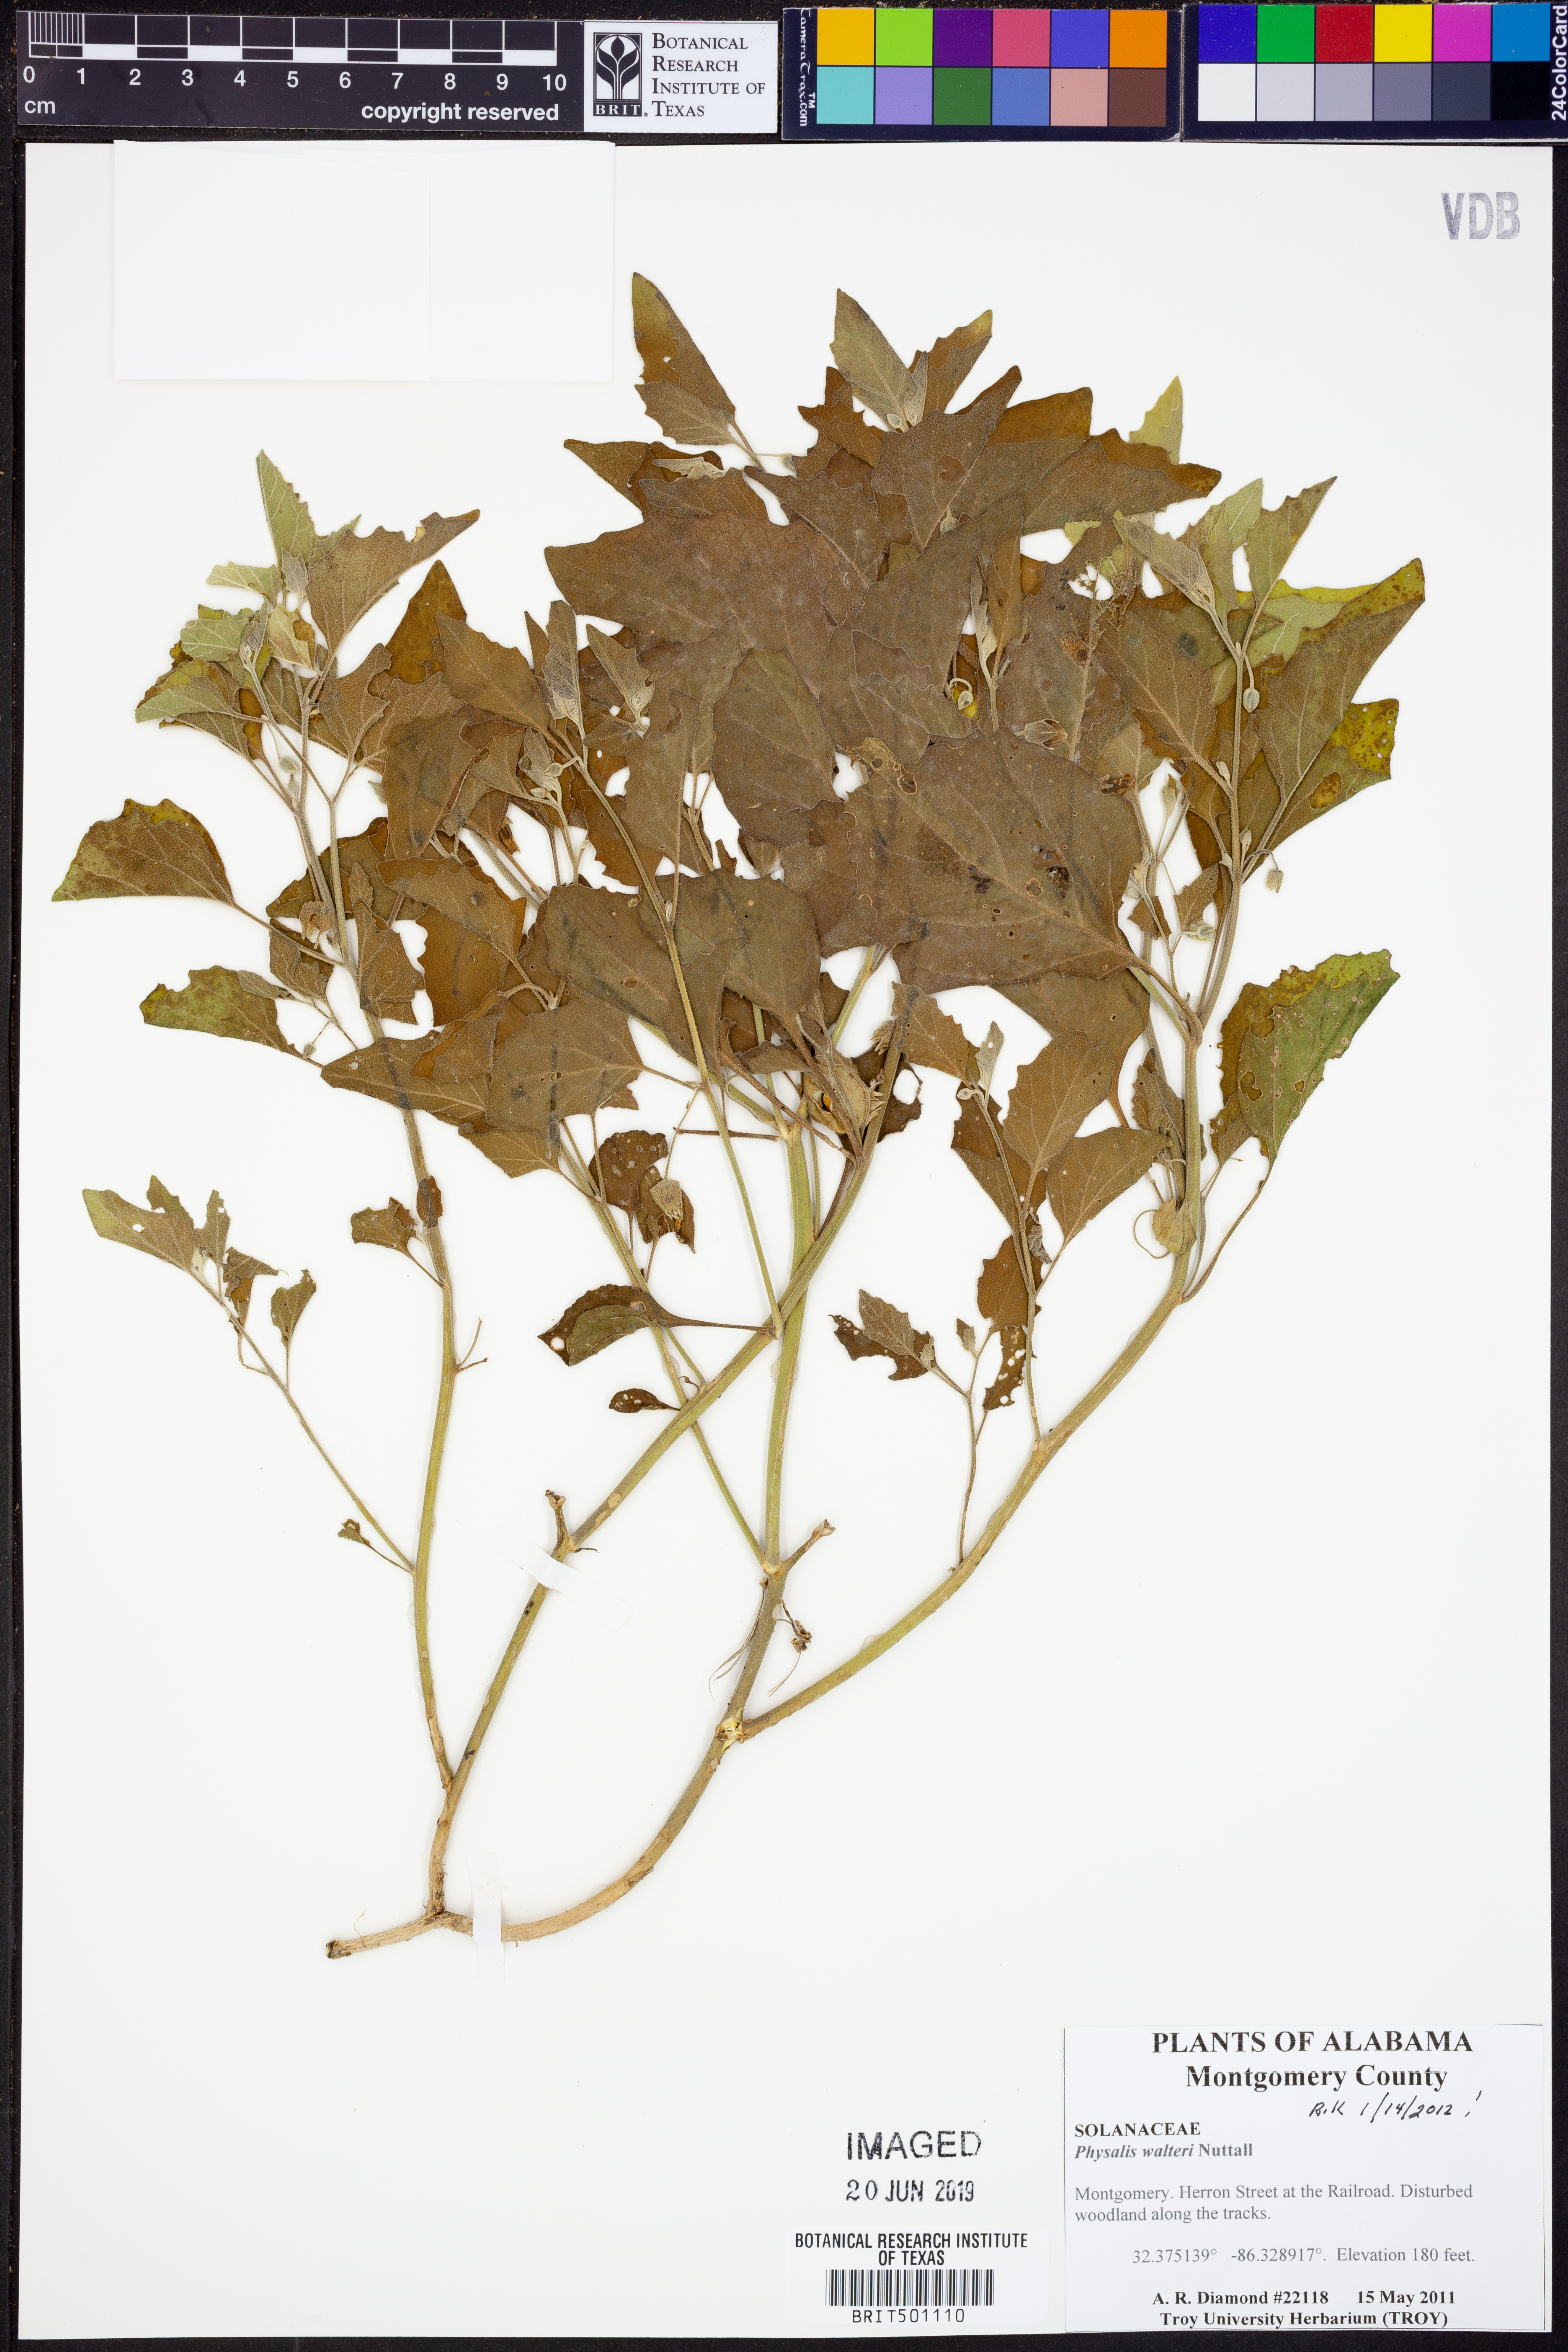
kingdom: Plantae
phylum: Tracheophyta
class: Magnoliopsida
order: Solanales
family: Solanaceae
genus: Physalis
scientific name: Physalis walteri
